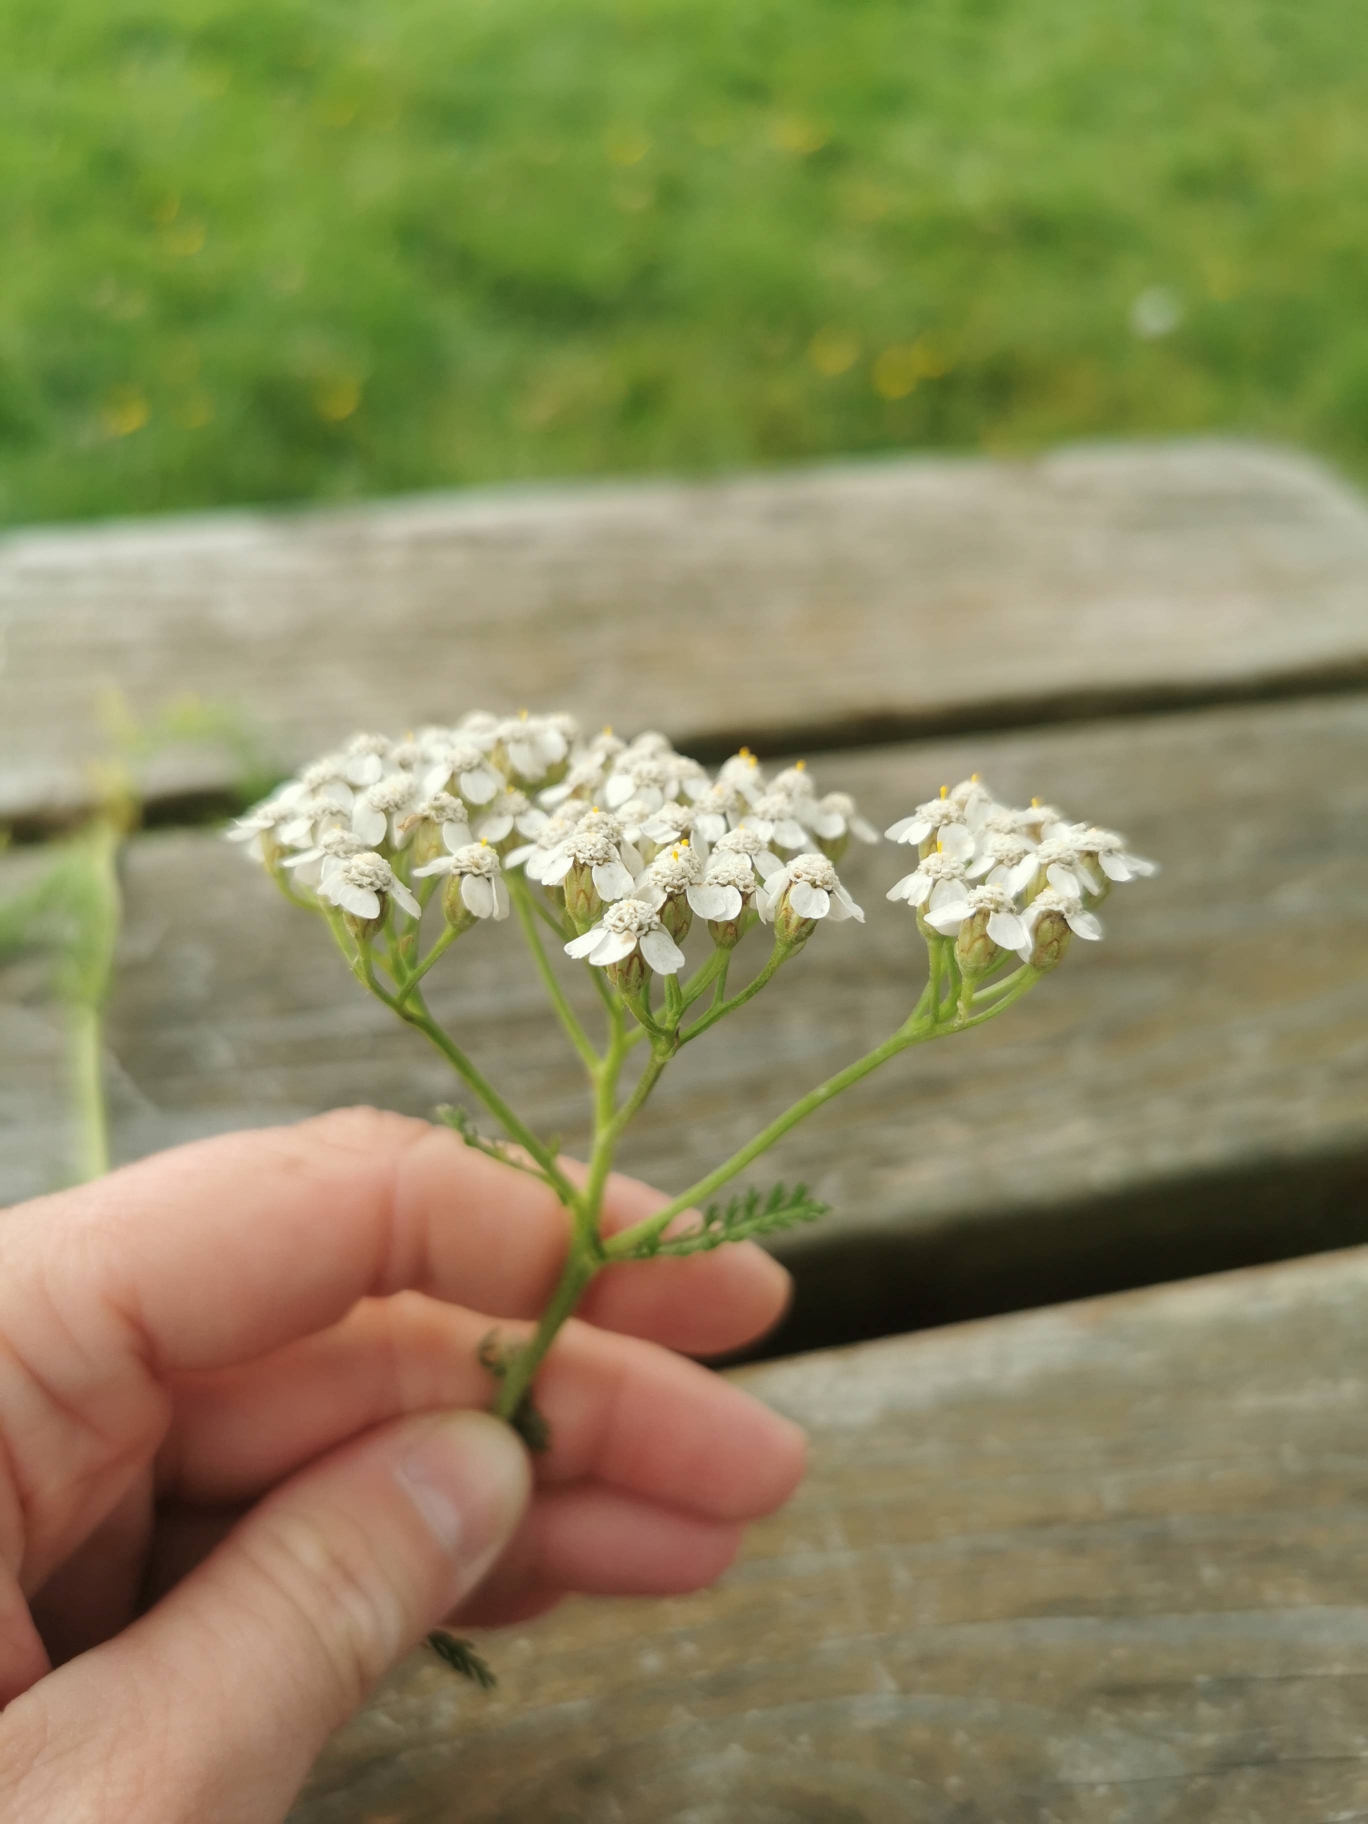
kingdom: Plantae
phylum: Tracheophyta
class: Magnoliopsida
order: Asterales
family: Asteraceae
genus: Achillea
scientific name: Achillea millefolium
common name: Almindelig røllike
